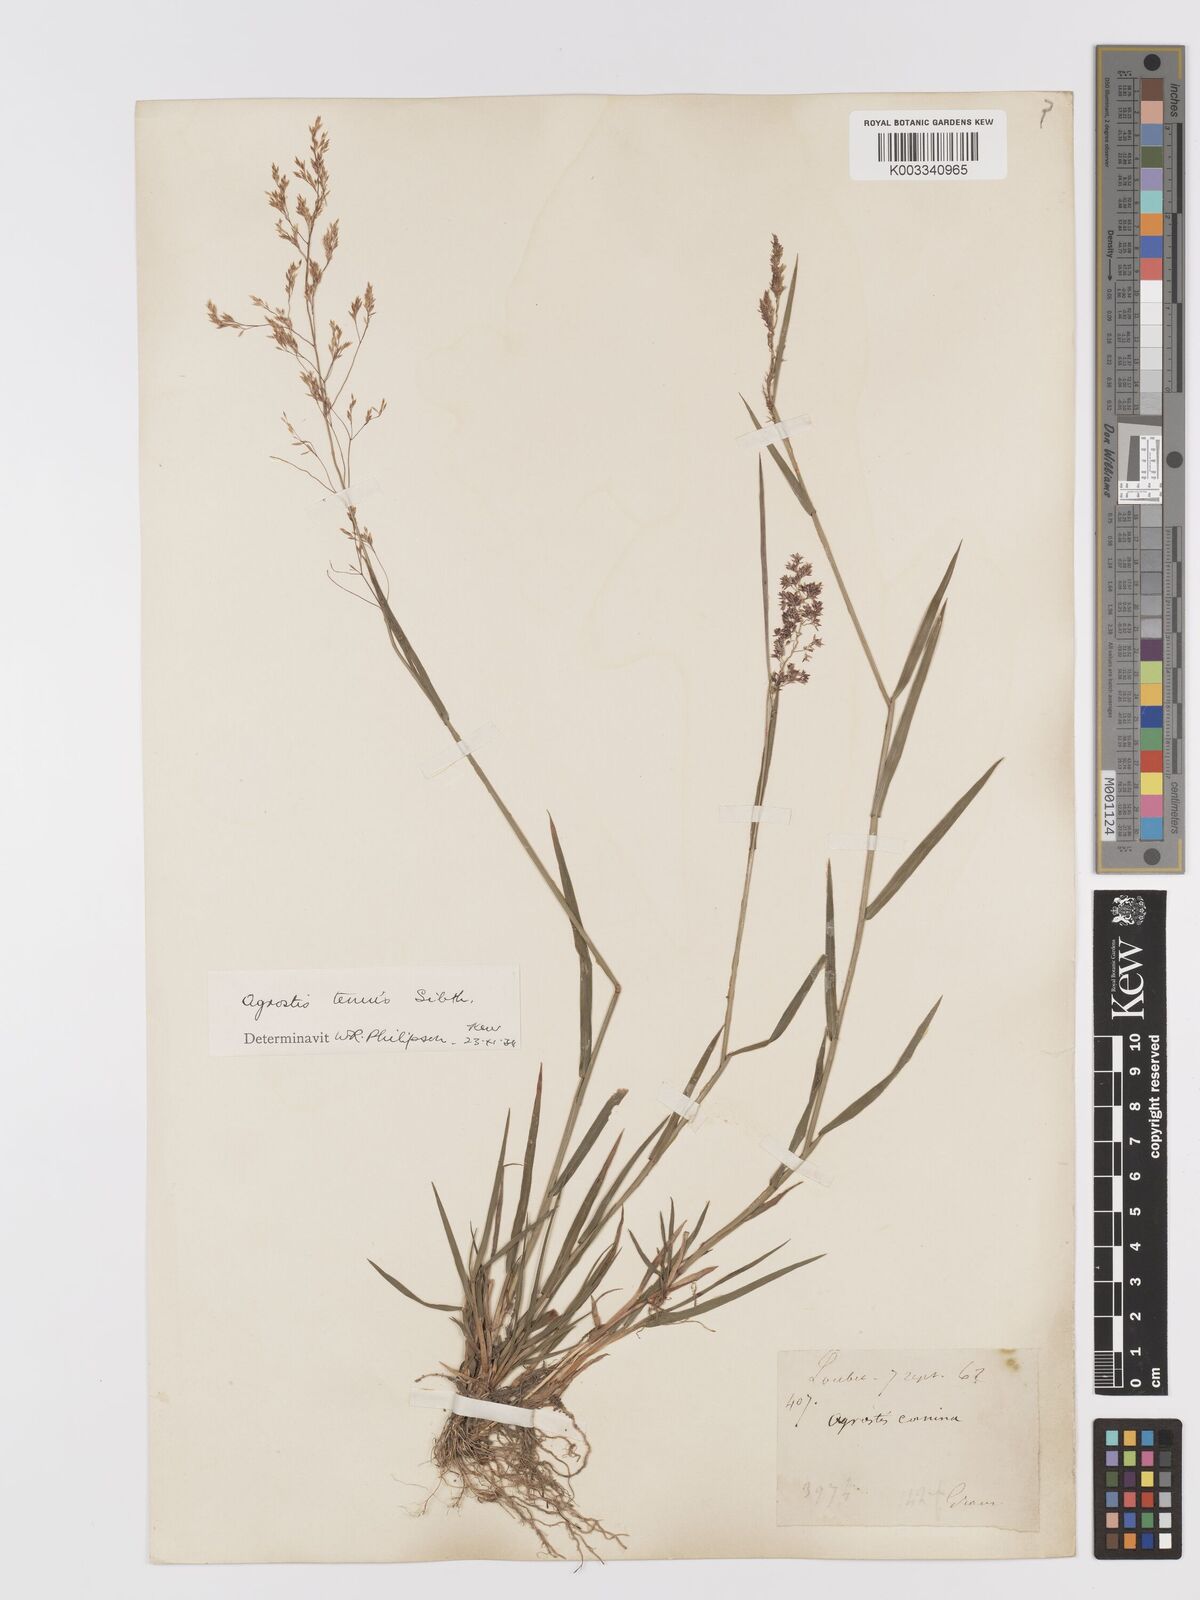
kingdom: Plantae
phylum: Tracheophyta
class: Liliopsida
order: Poales
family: Poaceae
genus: Agrostis
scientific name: Agrostis capillaris
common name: Colonial bentgrass
